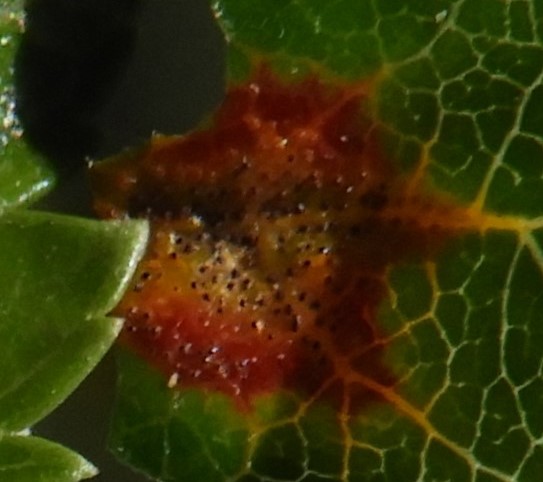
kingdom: Fungi
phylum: Basidiomycota
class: Pucciniomycetes
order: Pucciniales
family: Gymnosporangiaceae
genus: Gymnosporangium
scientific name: Gymnosporangium
